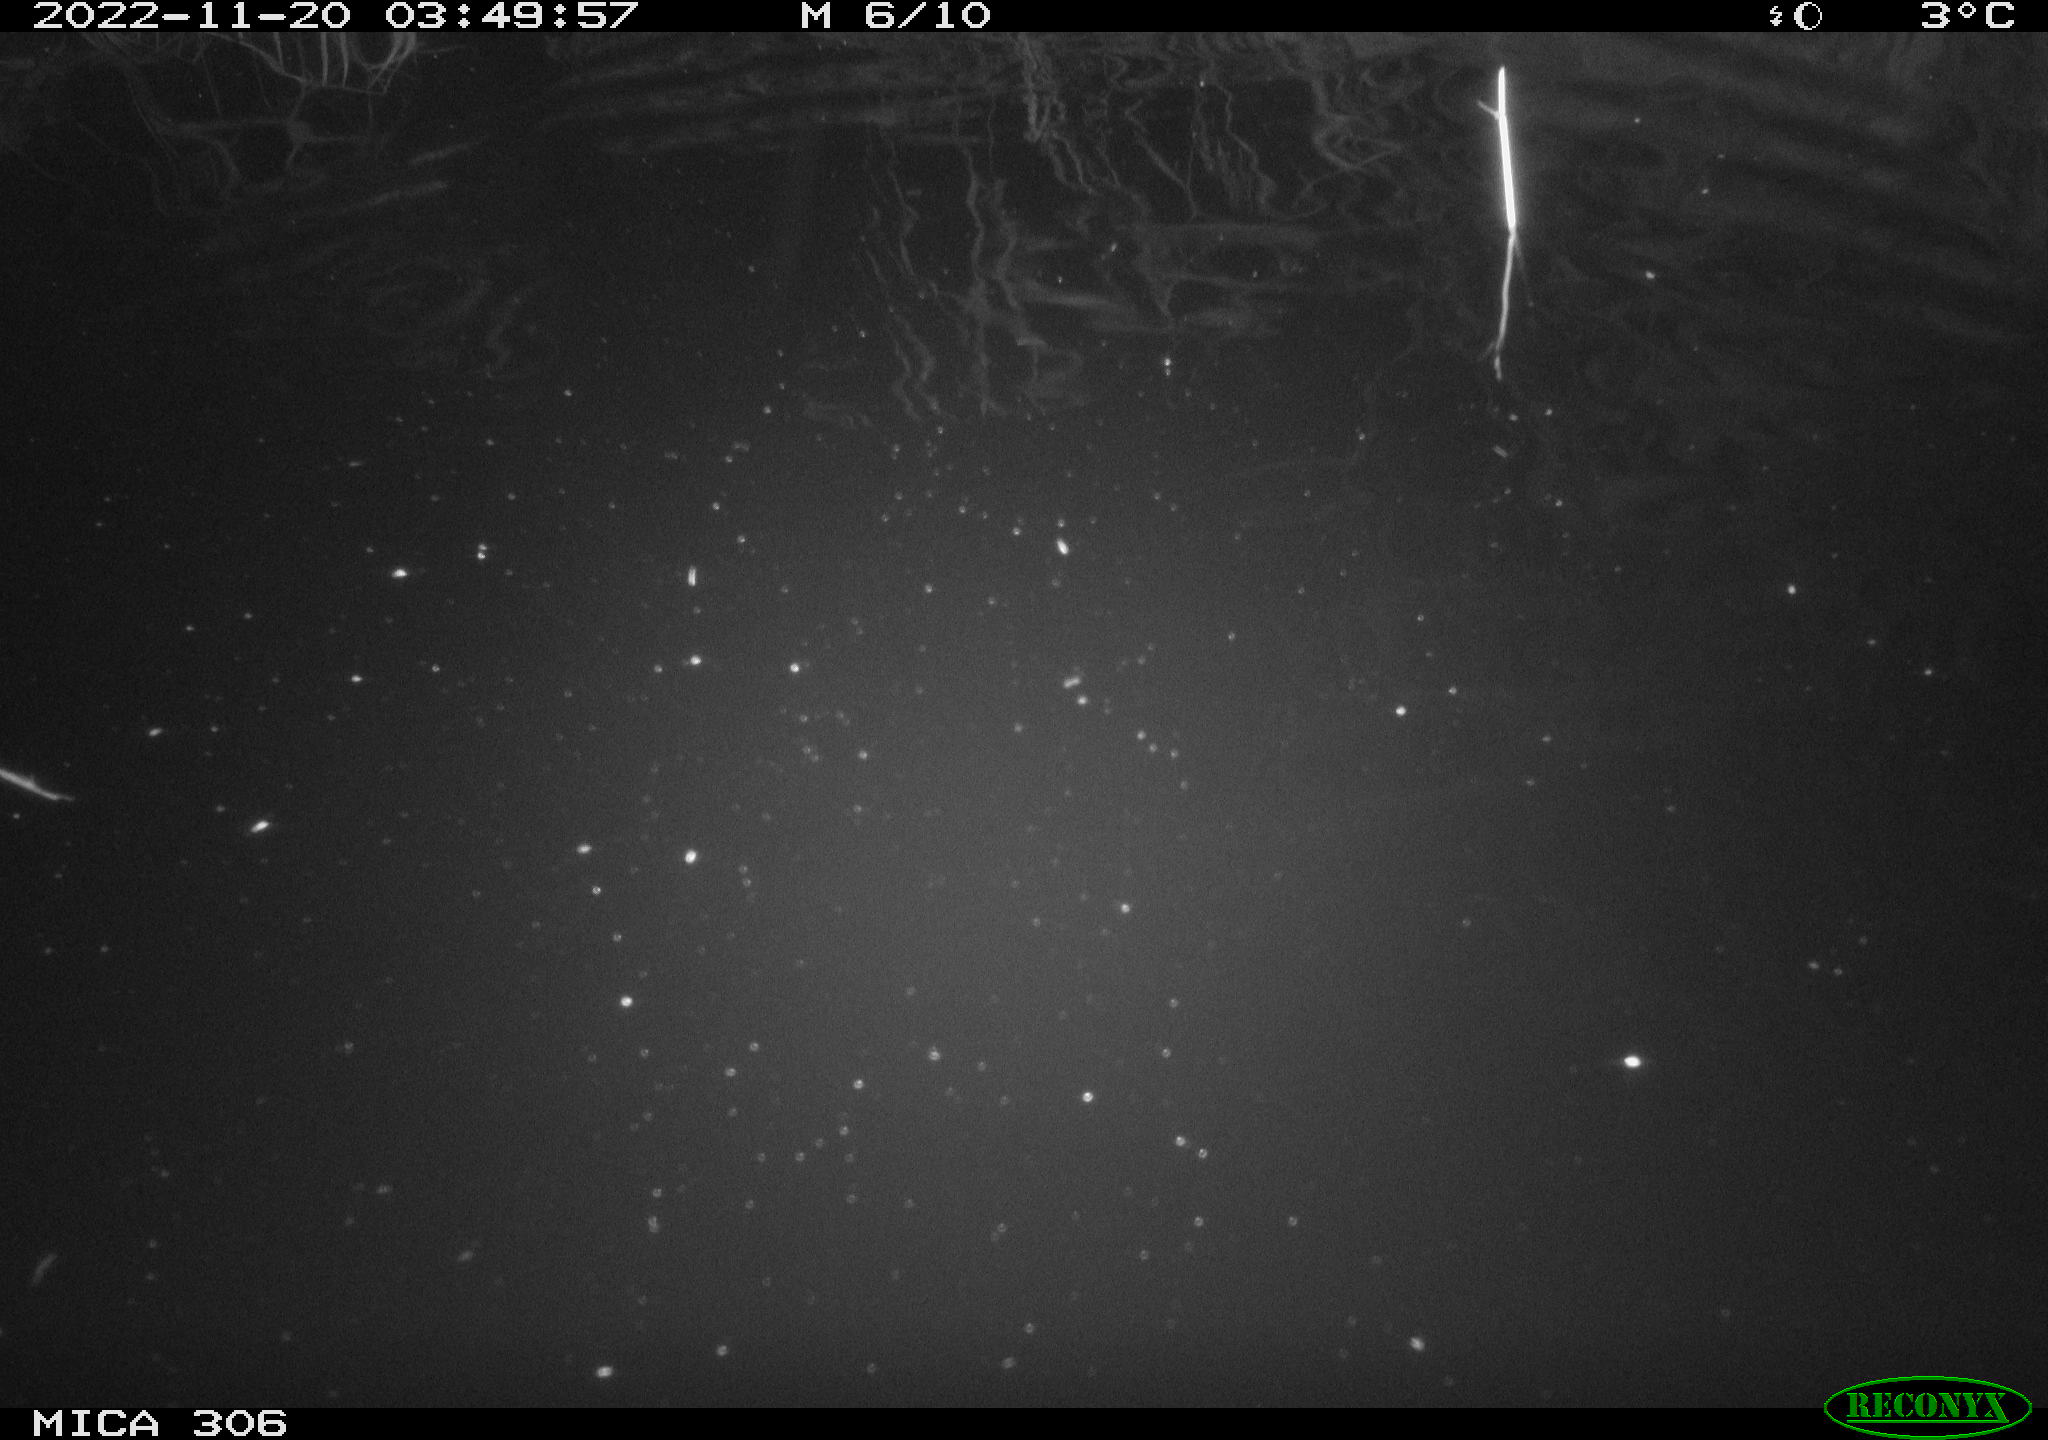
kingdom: Animalia
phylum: Chordata
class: Mammalia
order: Rodentia
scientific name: Rodentia
